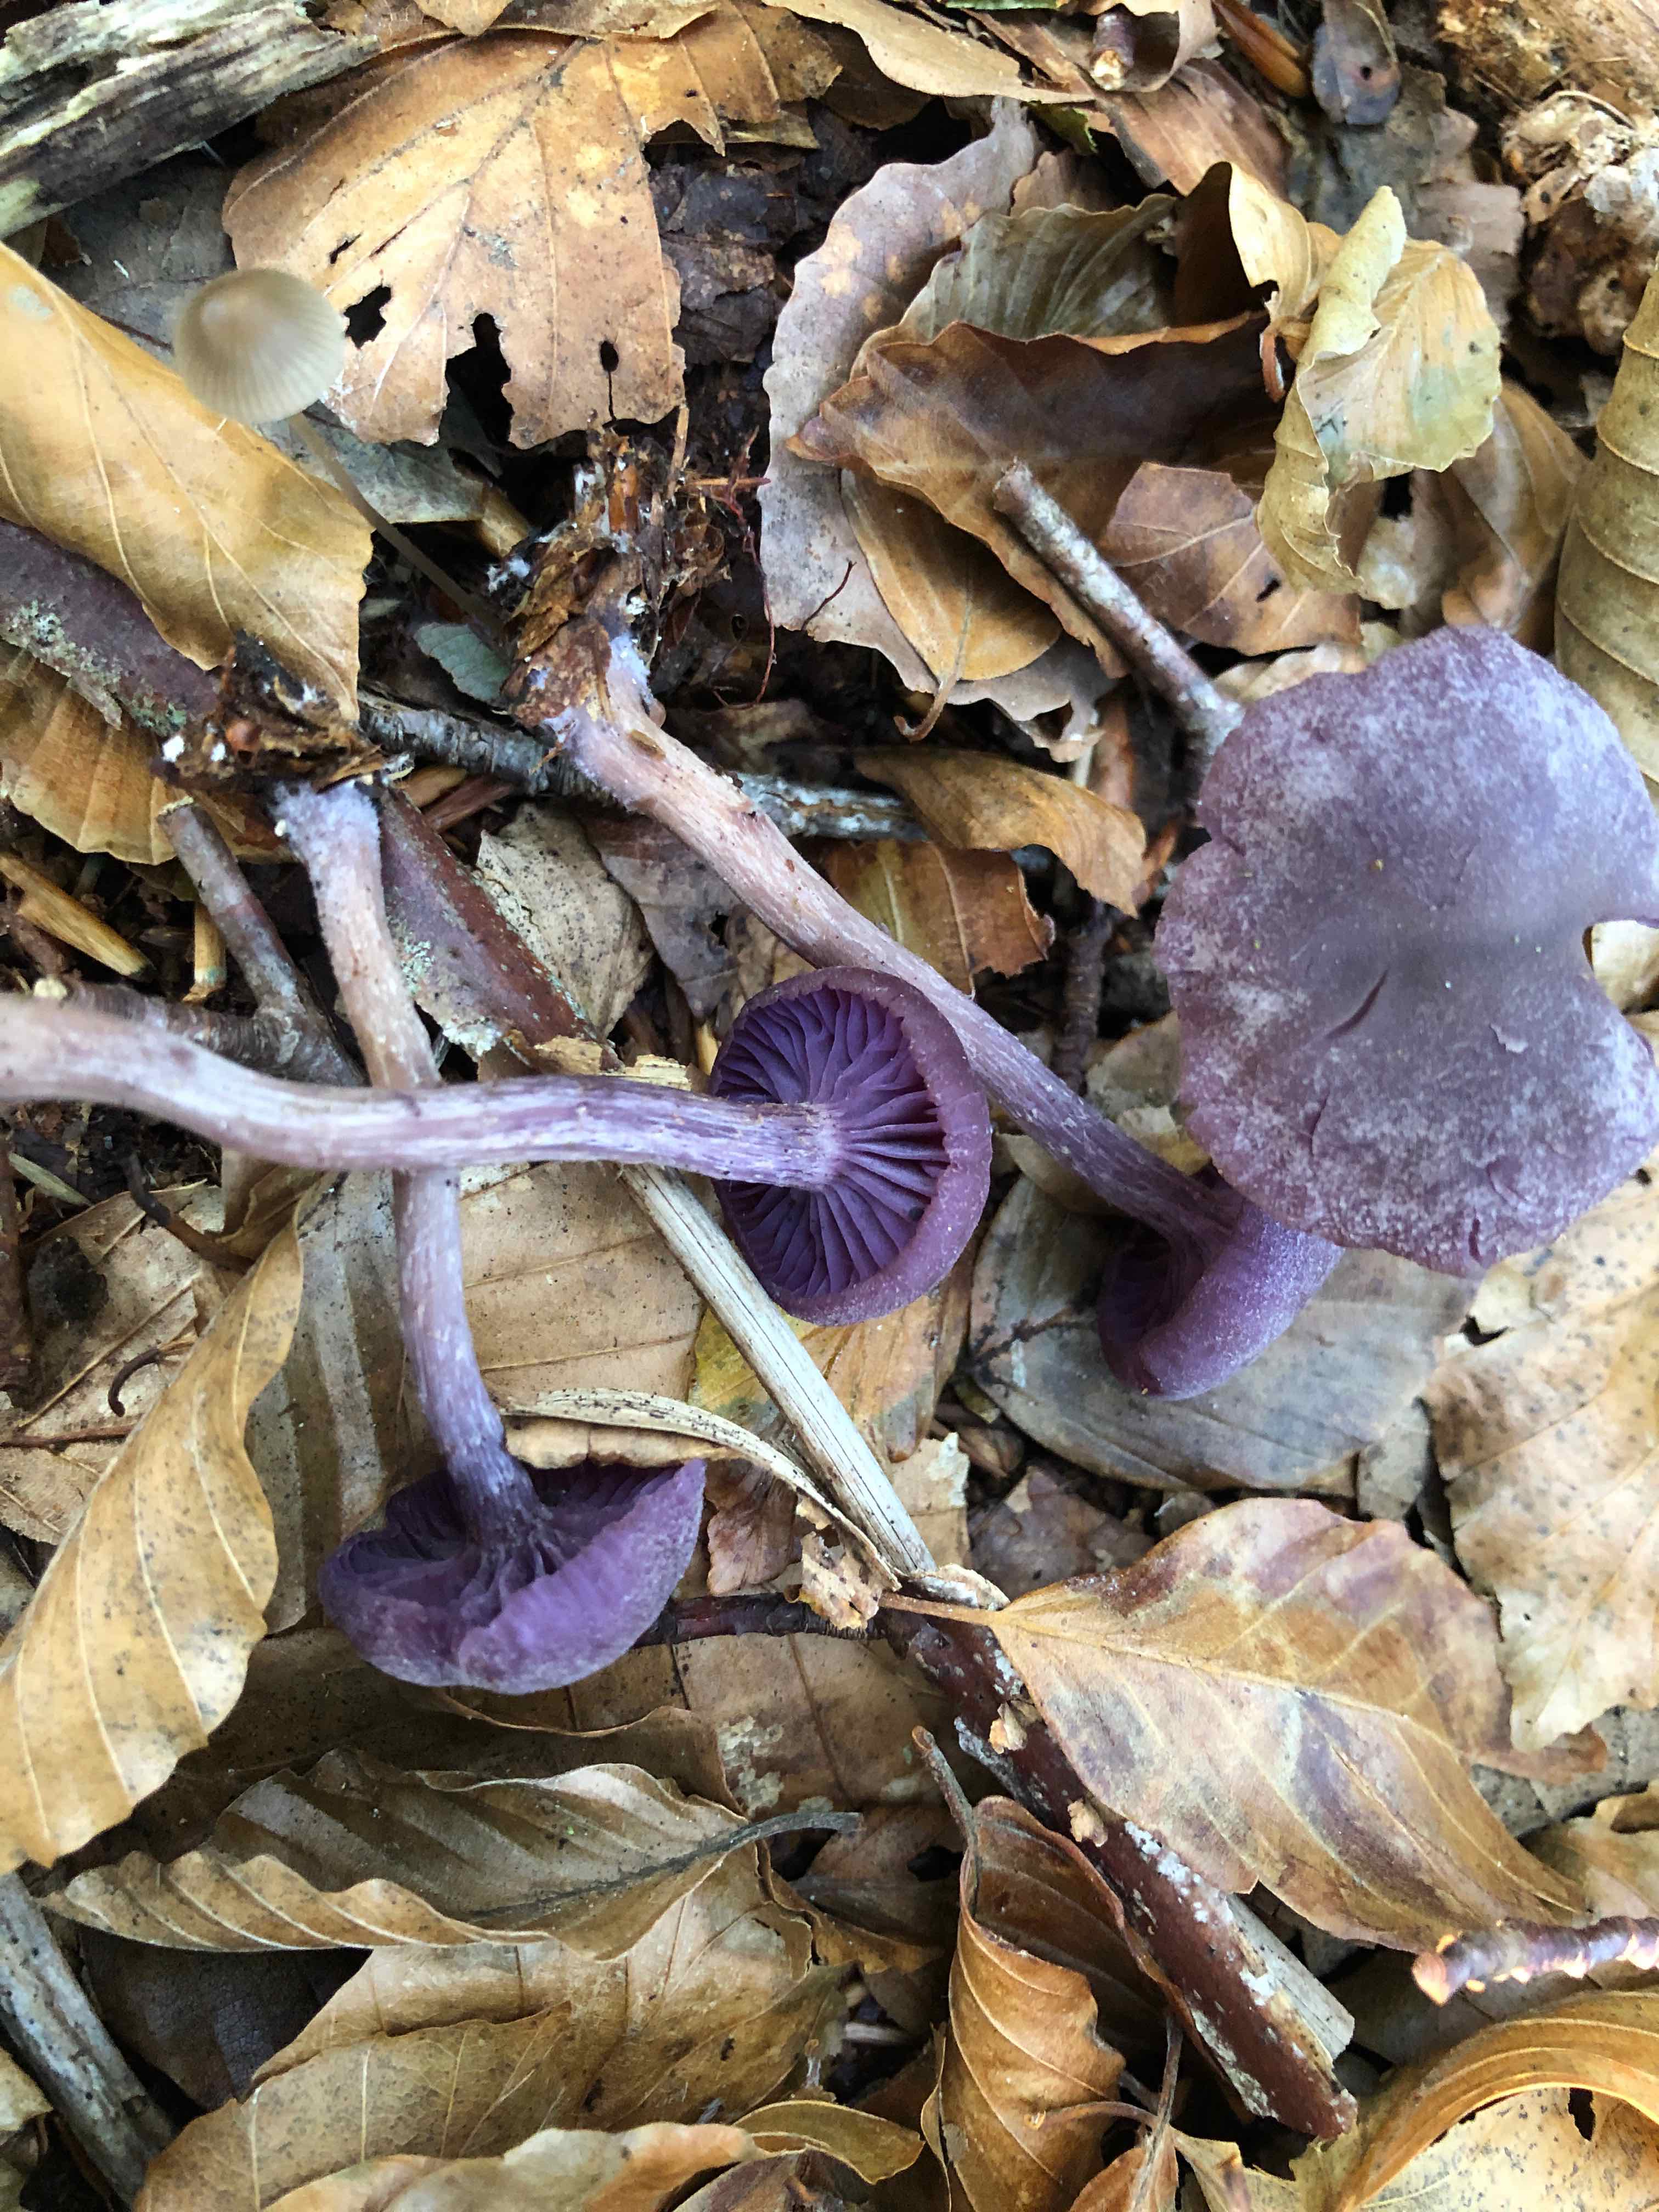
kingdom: Fungi
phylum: Basidiomycota
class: Agaricomycetes
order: Agaricales
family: Hydnangiaceae
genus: Laccaria
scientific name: Laccaria amethystina
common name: violet ametysthat
